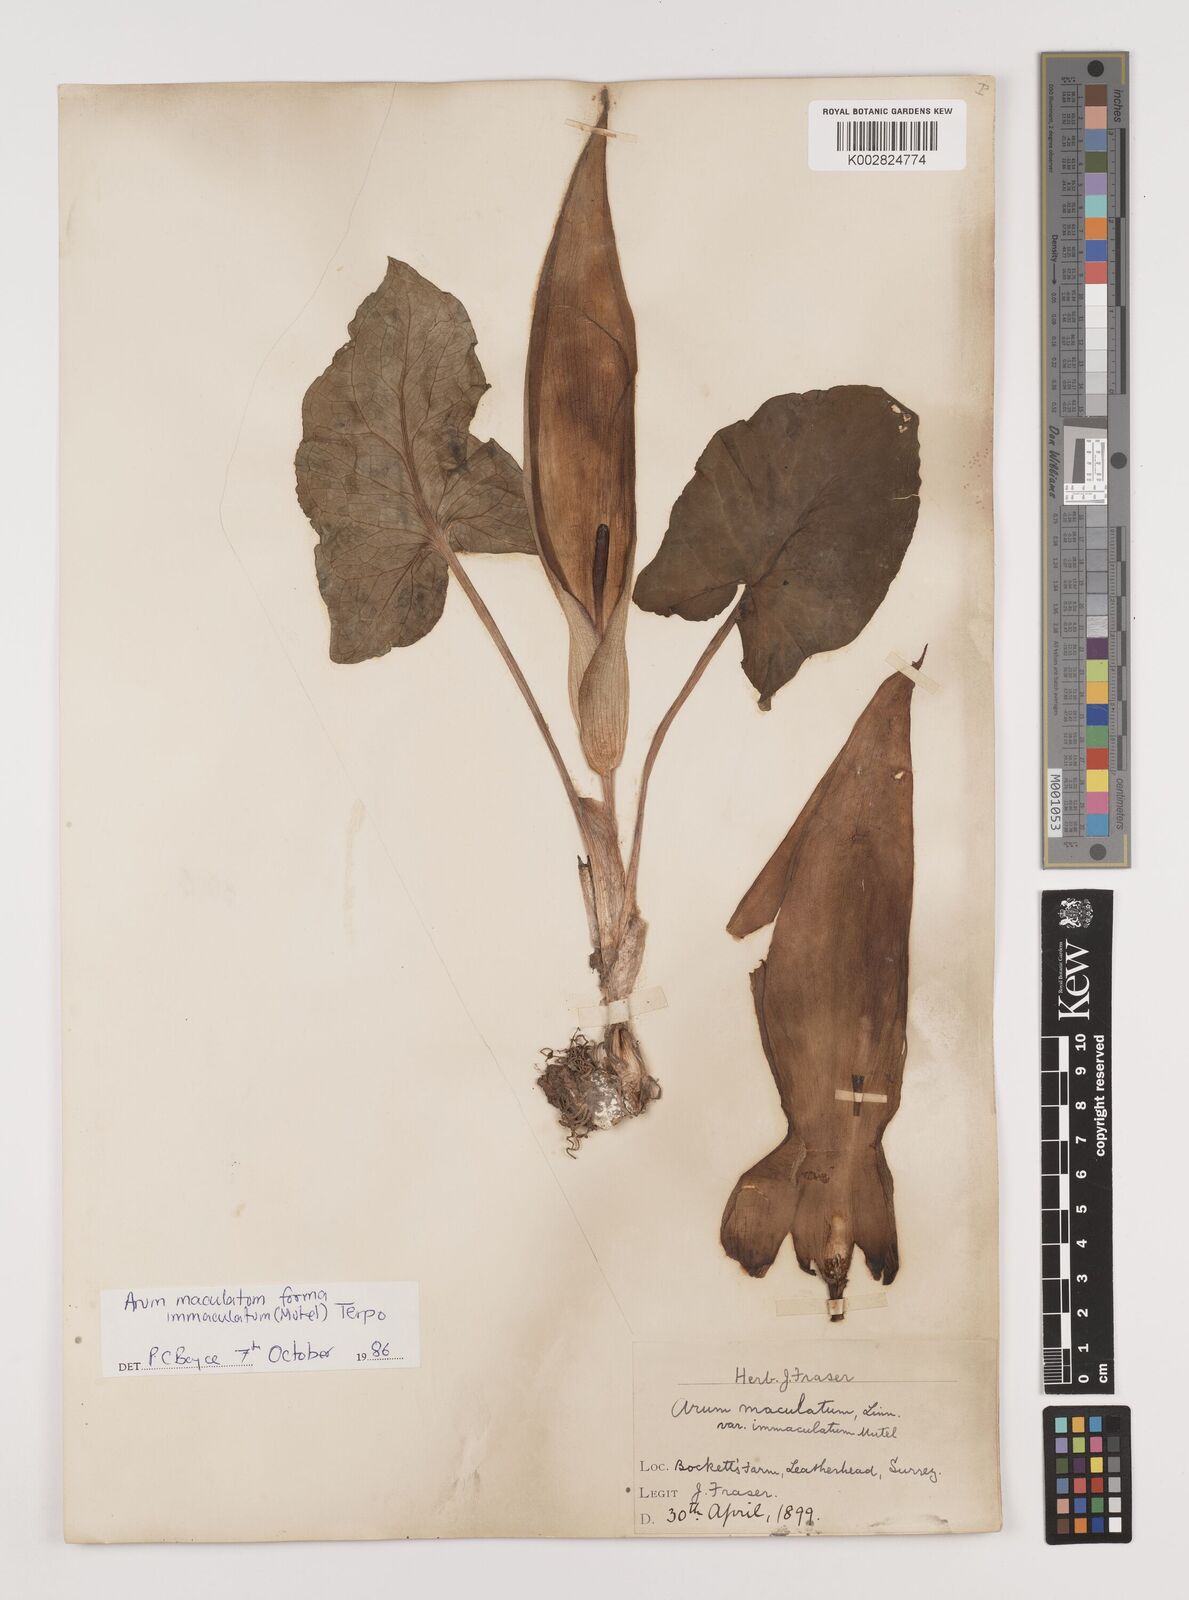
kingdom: Plantae
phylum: Tracheophyta
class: Liliopsida
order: Alismatales
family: Araceae
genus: Arum
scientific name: Arum maculatum
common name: Lords-and-ladies
